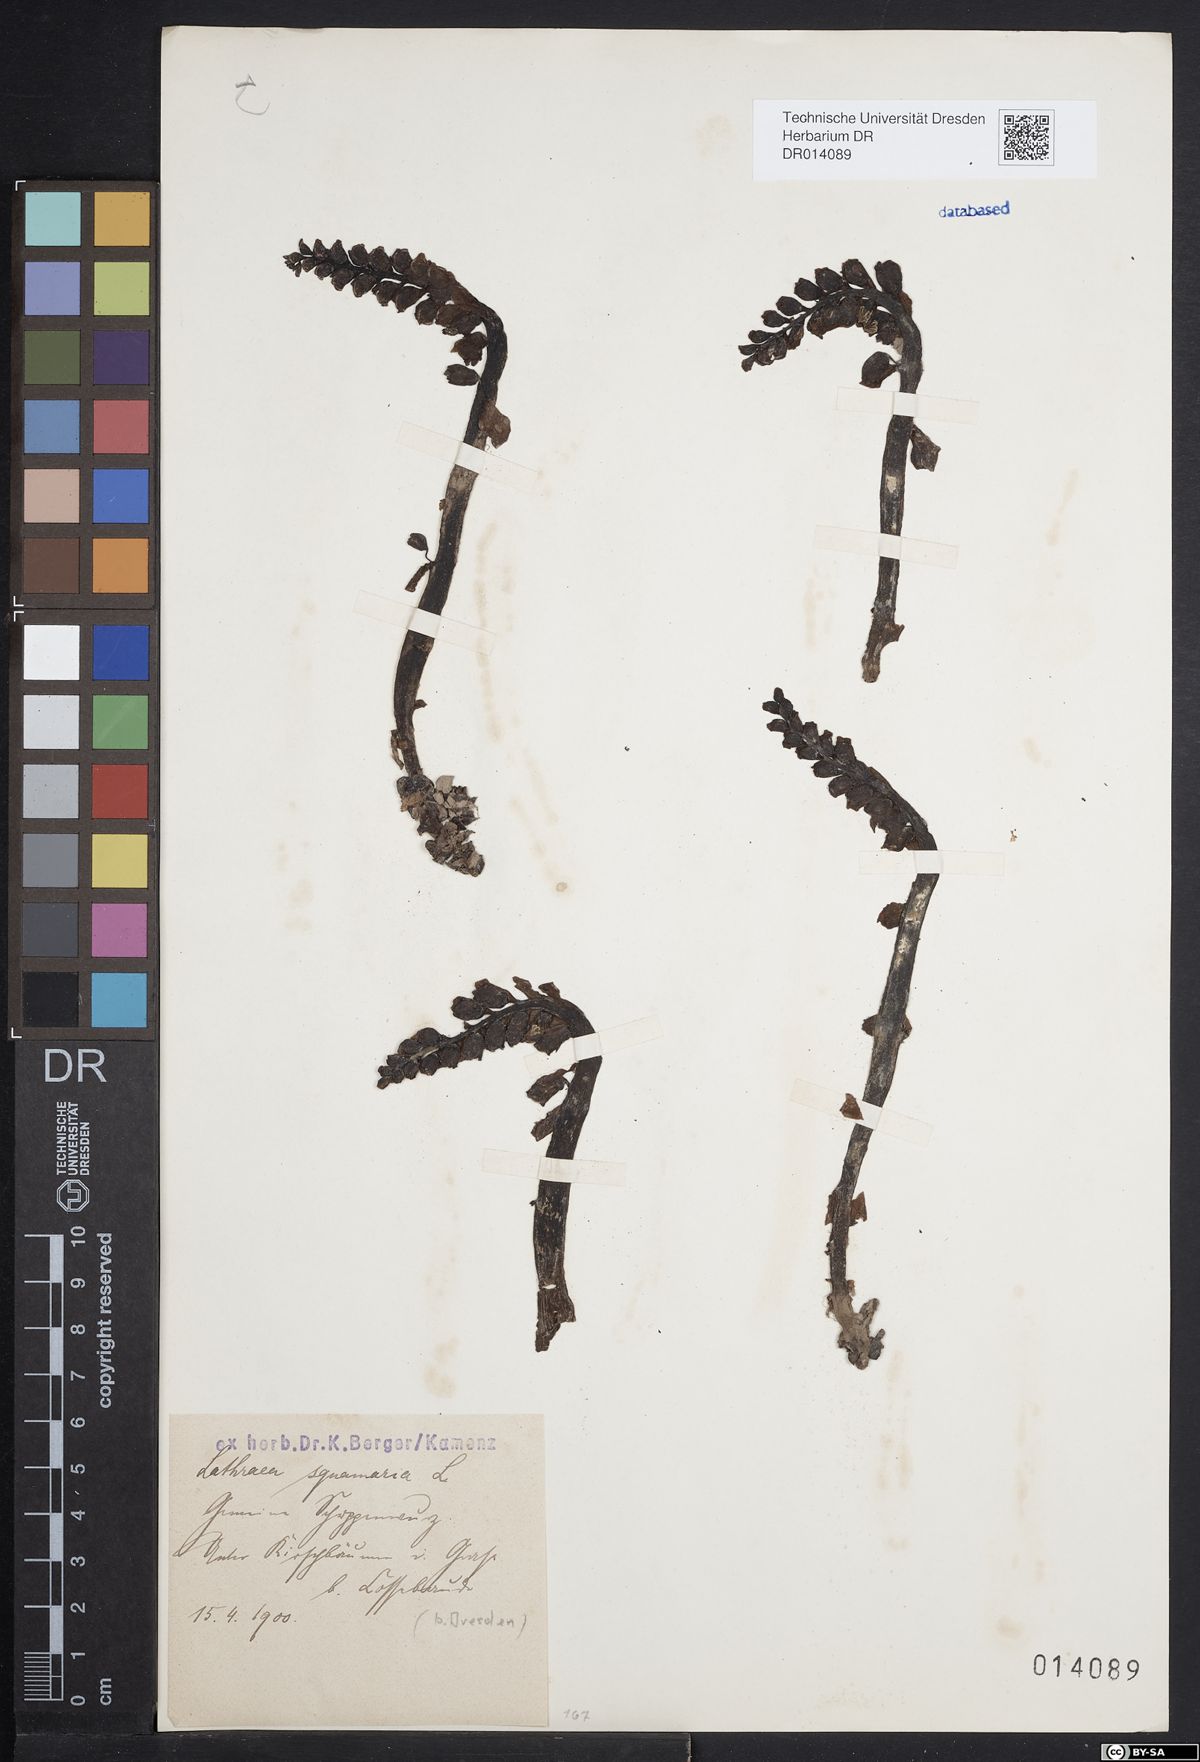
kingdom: Plantae
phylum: Tracheophyta
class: Magnoliopsida
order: Lamiales
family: Orobanchaceae
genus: Lathraea
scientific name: Lathraea squamaria
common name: Toothwort
